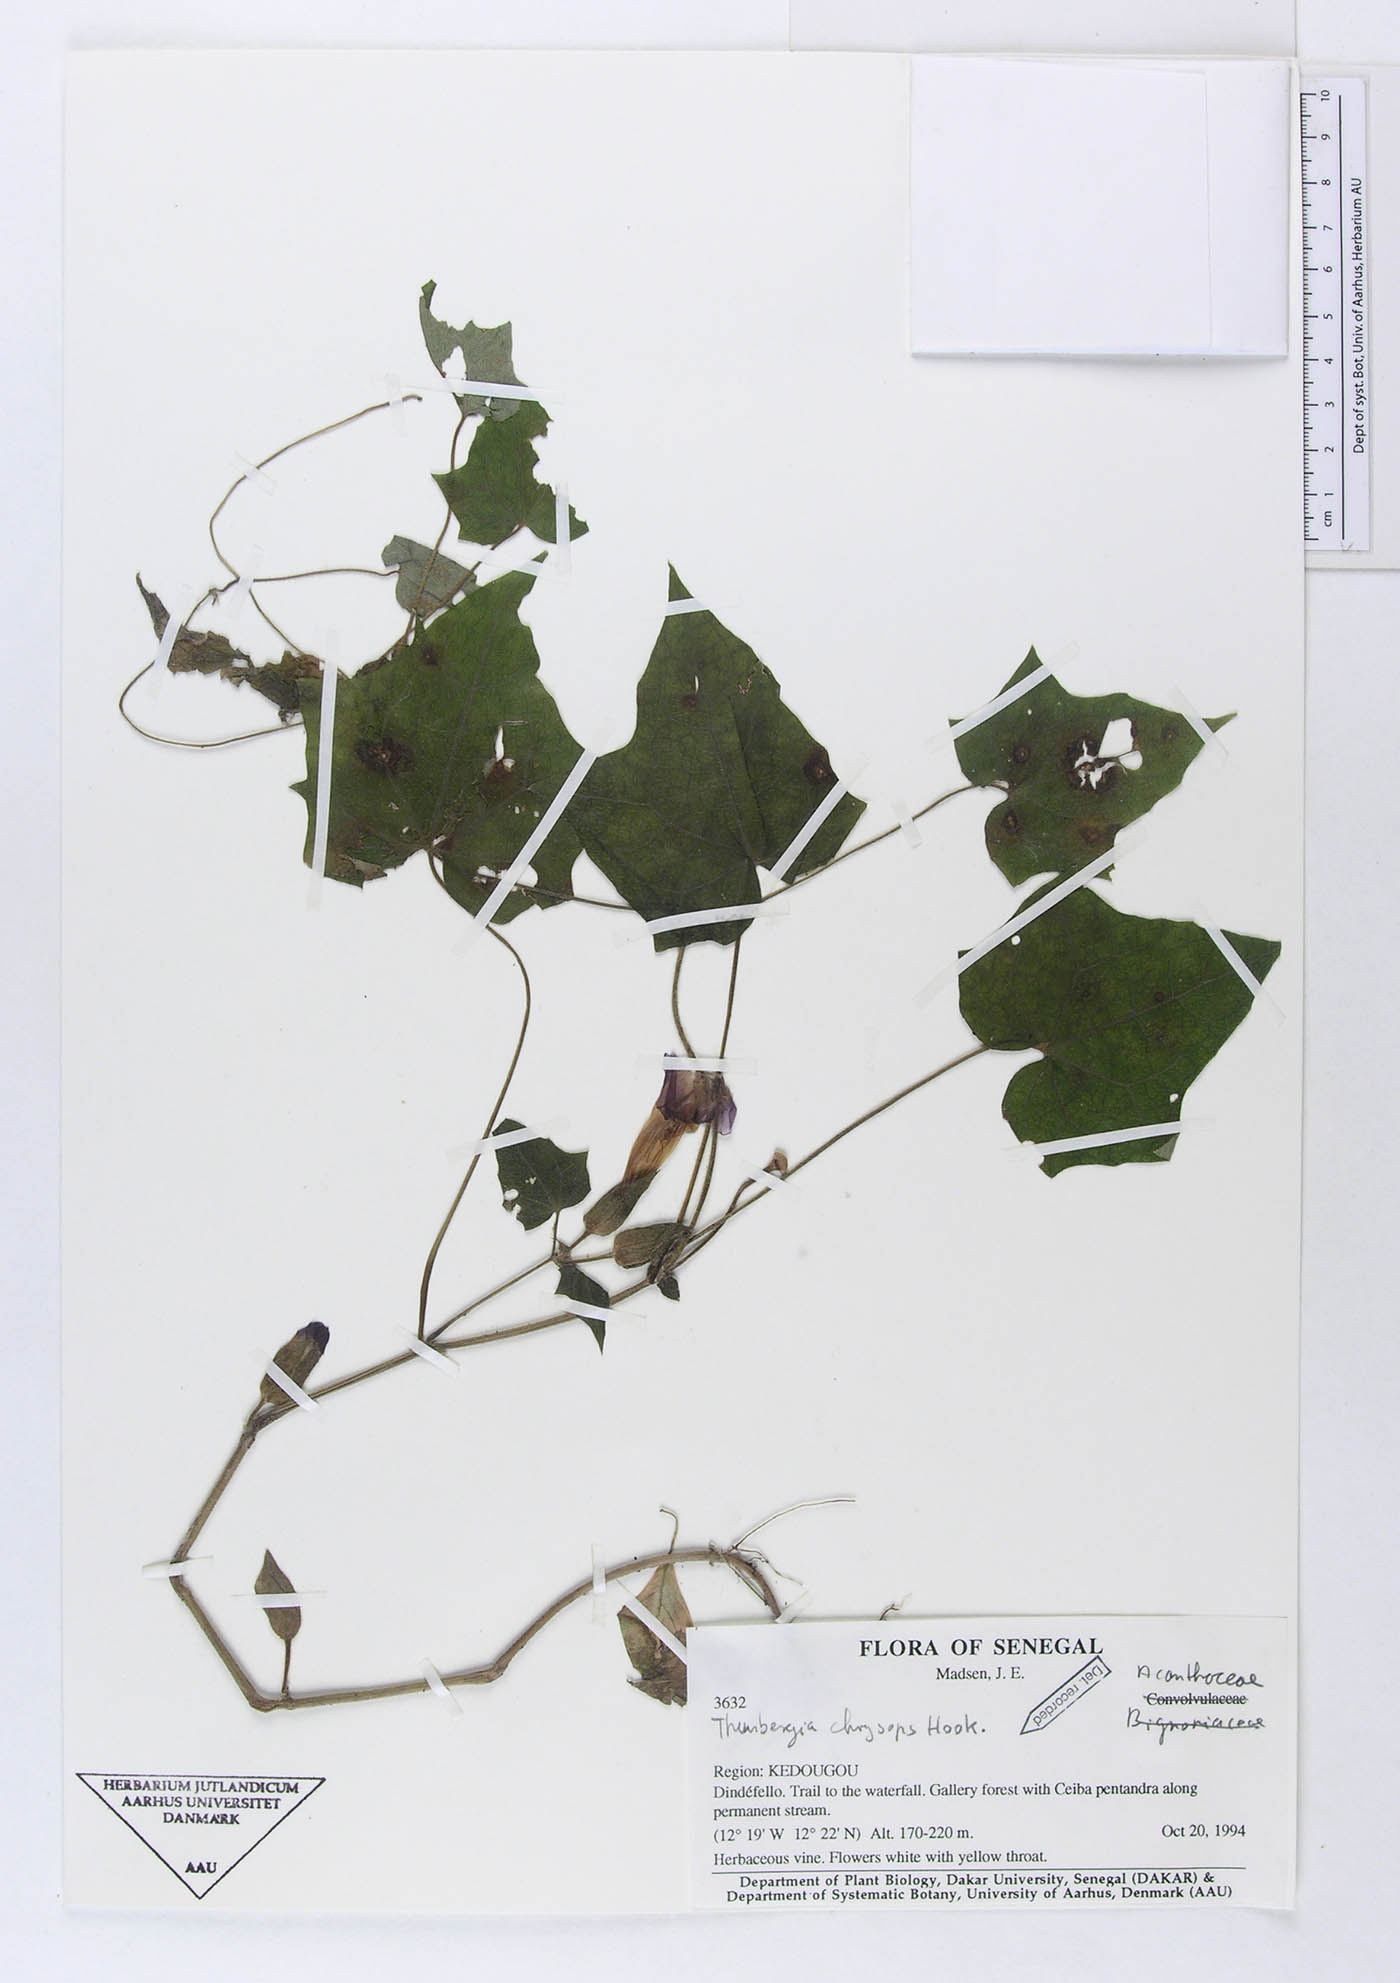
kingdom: Plantae
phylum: Tracheophyta
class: Magnoliopsida
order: Lamiales
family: Acanthaceae
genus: Thunbergia
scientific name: Thunbergia chrysops
